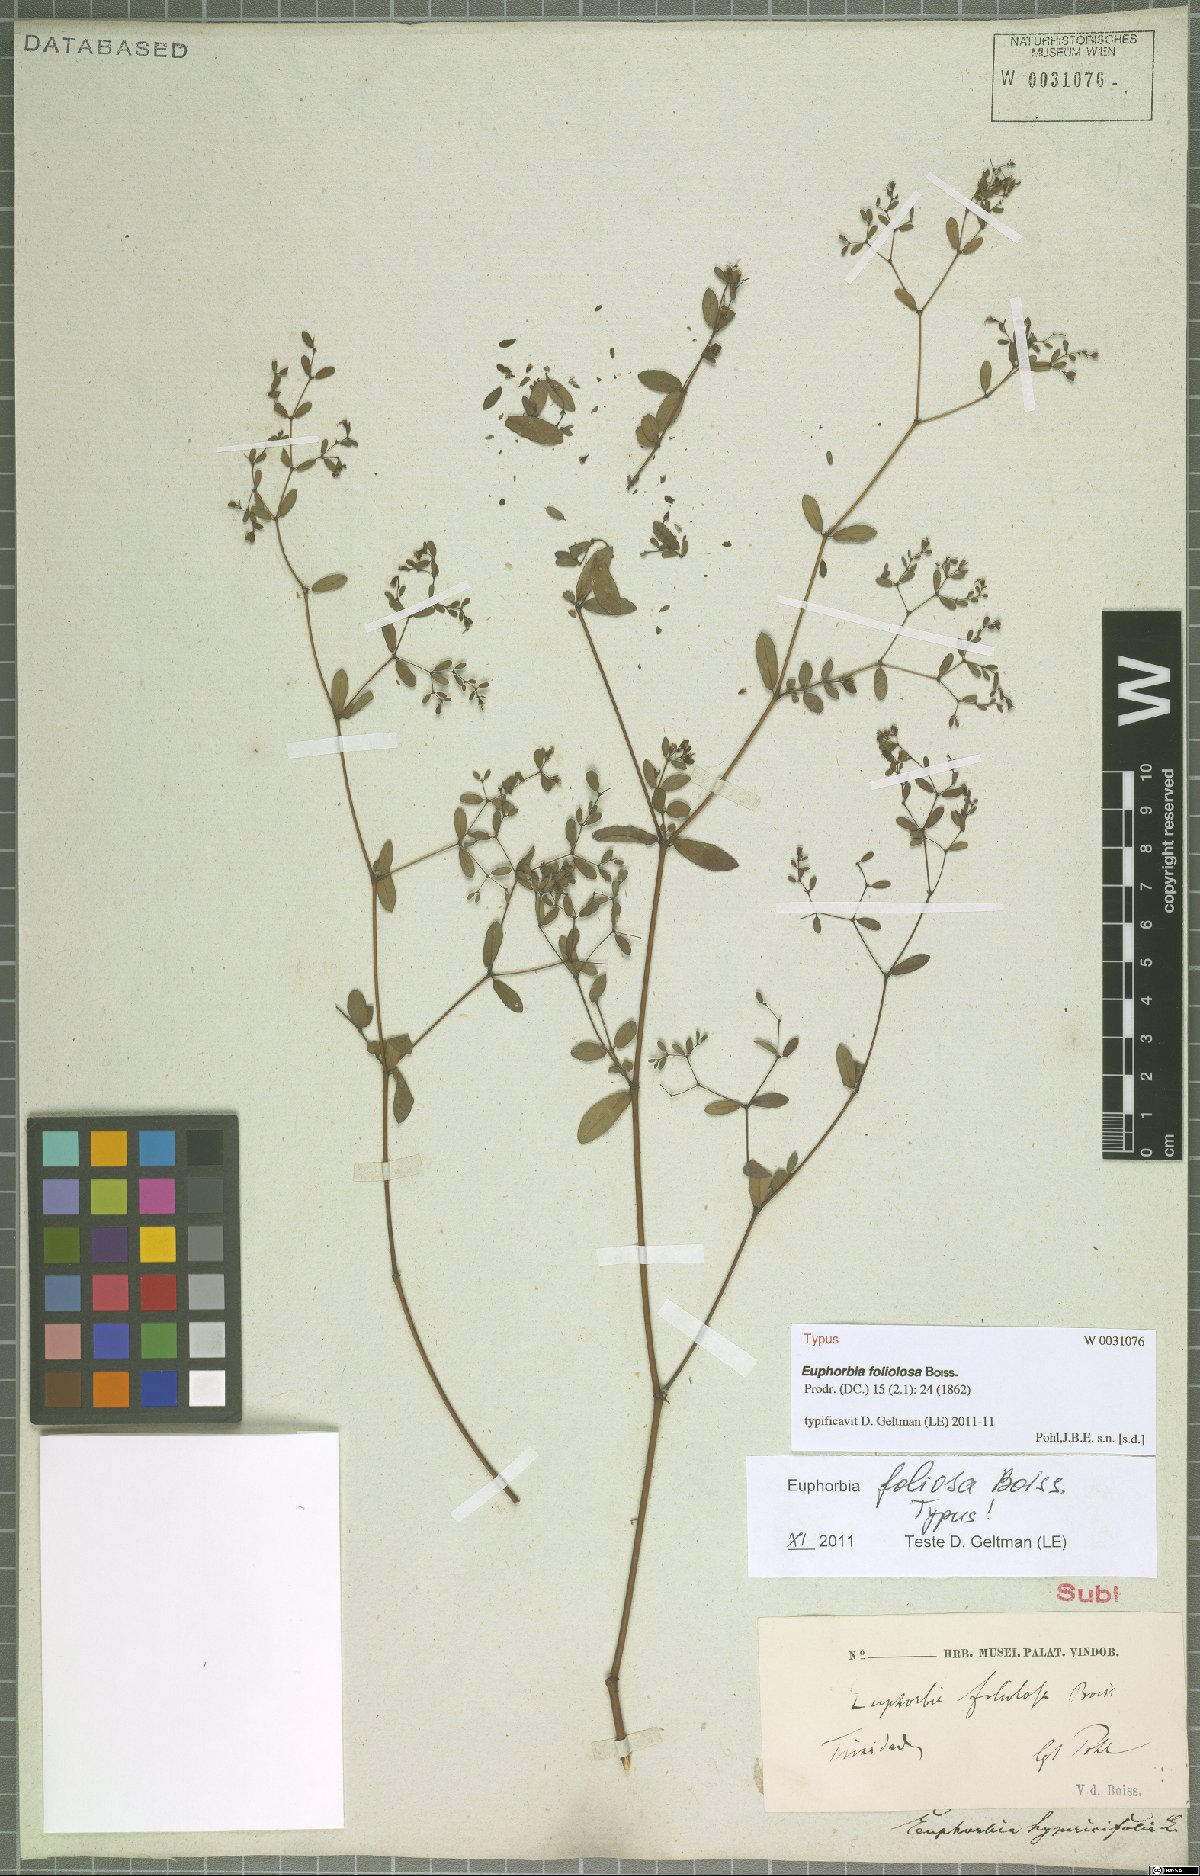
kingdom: Plantae
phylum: Tracheophyta
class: Magnoliopsida
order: Malpighiales
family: Euphorbiaceae
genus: Euphorbia
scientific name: Euphorbia foliolosa
